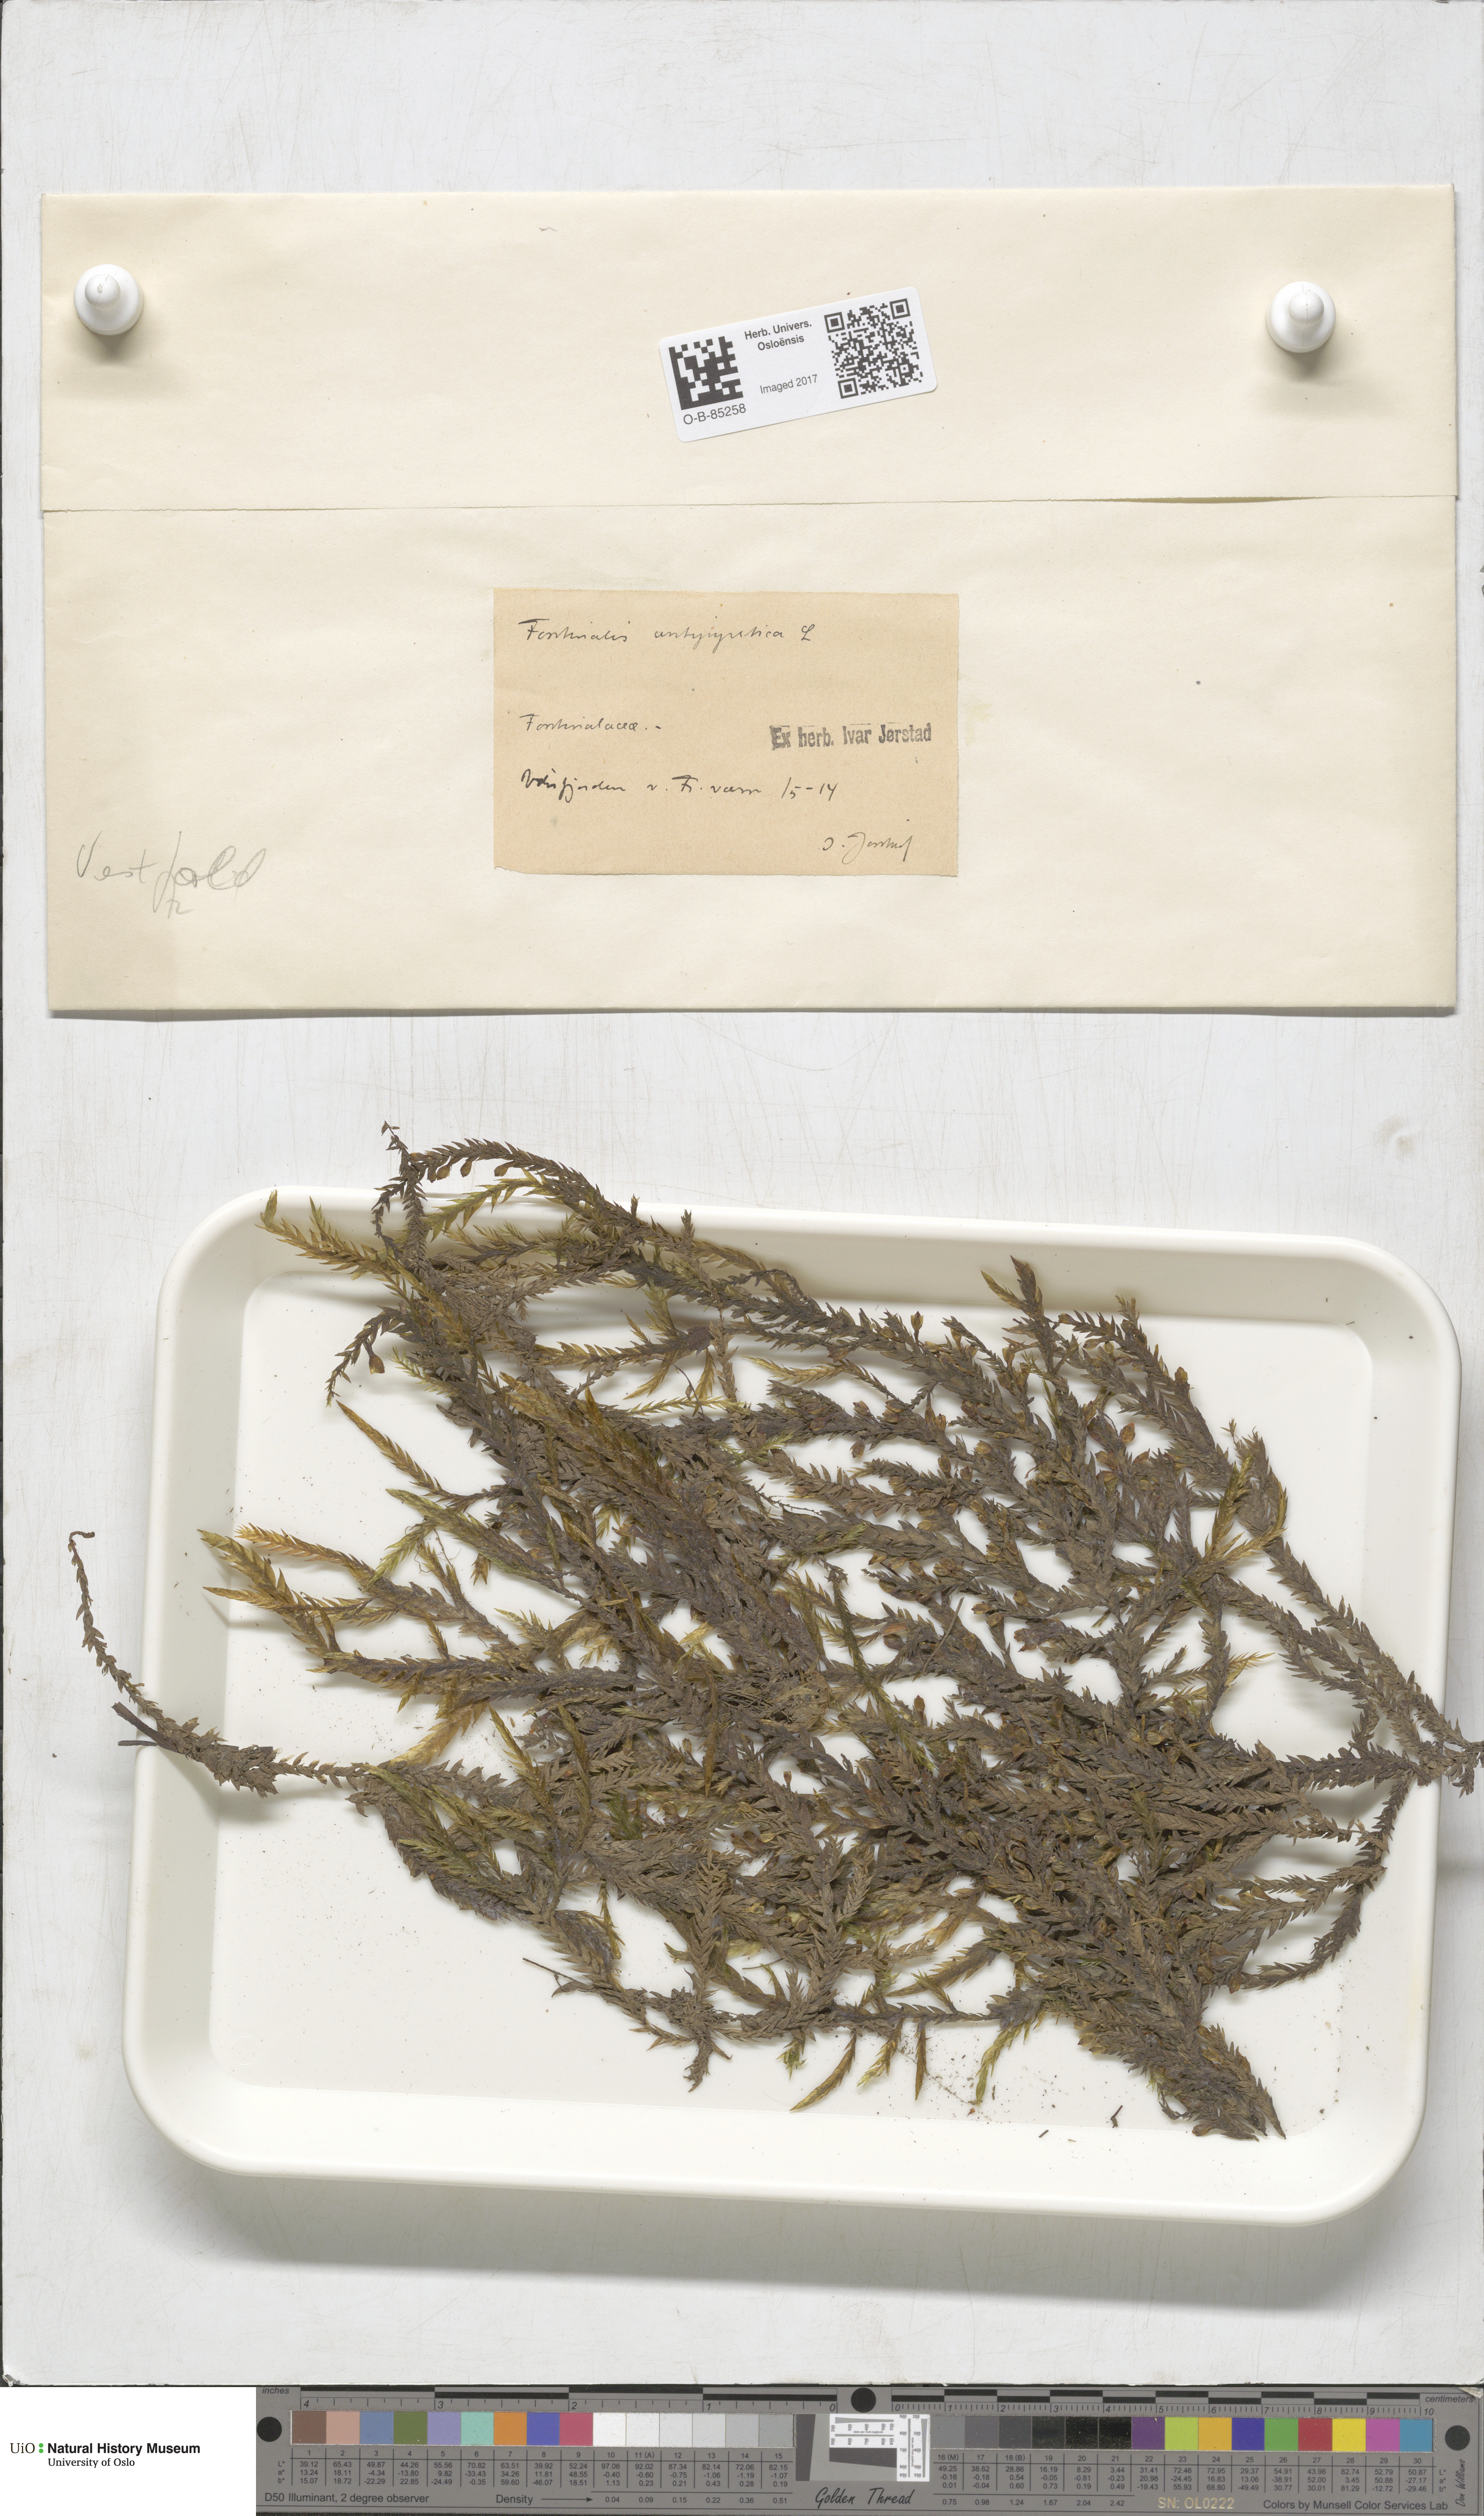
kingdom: Plantae
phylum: Bryophyta
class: Bryopsida
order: Hypnales
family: Fontinalaceae
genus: Fontinalis
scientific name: Fontinalis antipyretica
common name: Greater water-moss
